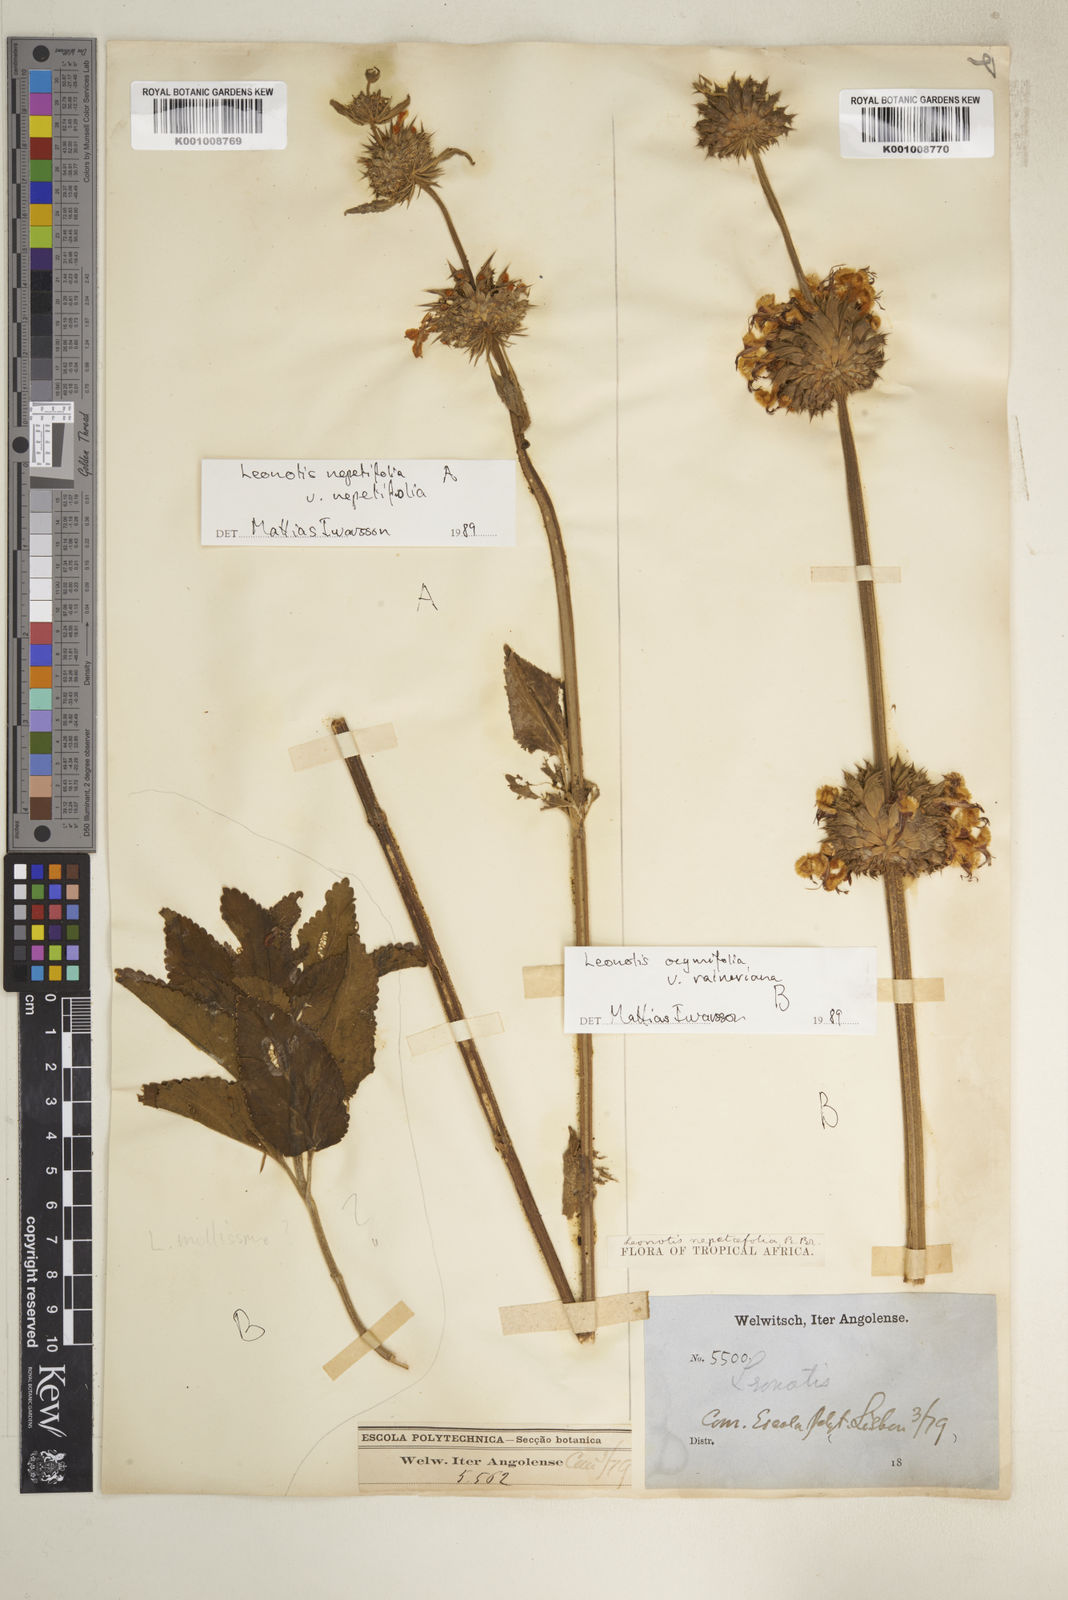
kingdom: Plantae
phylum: Tracheophyta
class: Magnoliopsida
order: Lamiales
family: Lamiaceae
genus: Leonotis
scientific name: Leonotis nepetifolia
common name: Christmas candlestick
